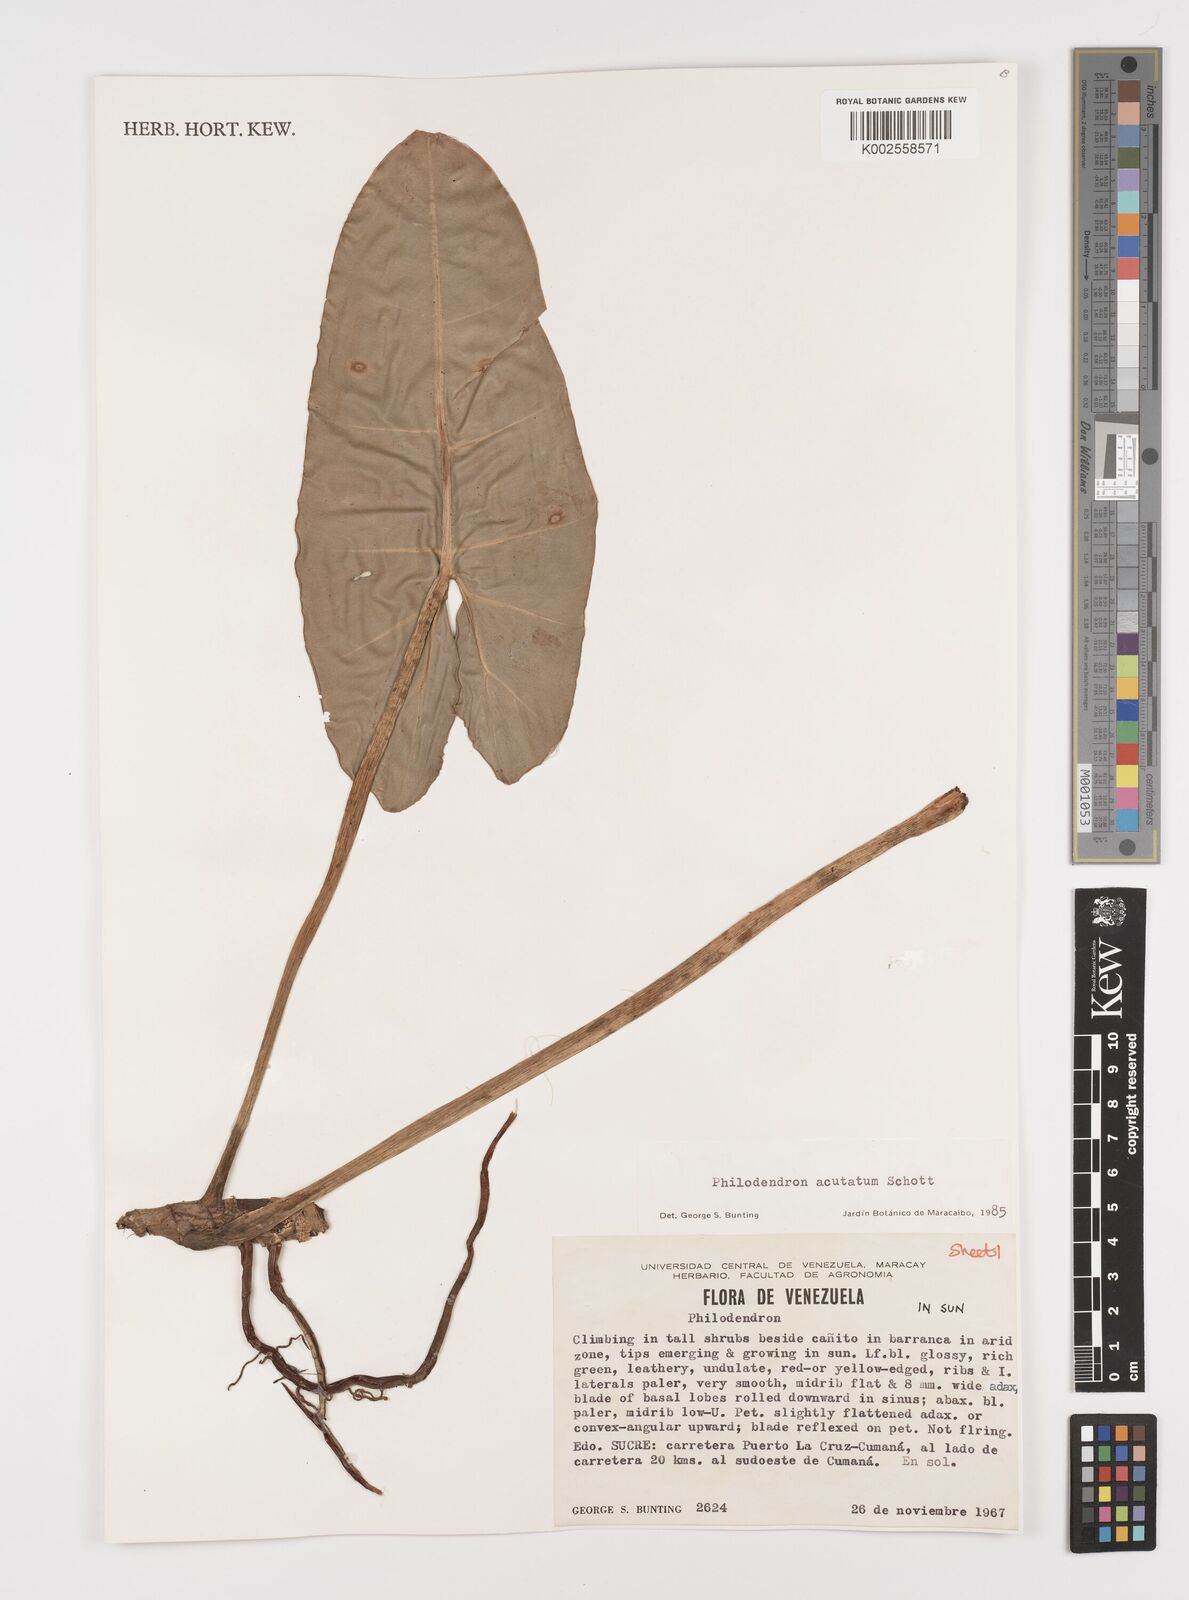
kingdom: Plantae
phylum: Tracheophyta
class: Liliopsida
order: Alismatales
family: Araceae
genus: Philodendron
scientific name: Philodendron quinquenervium
